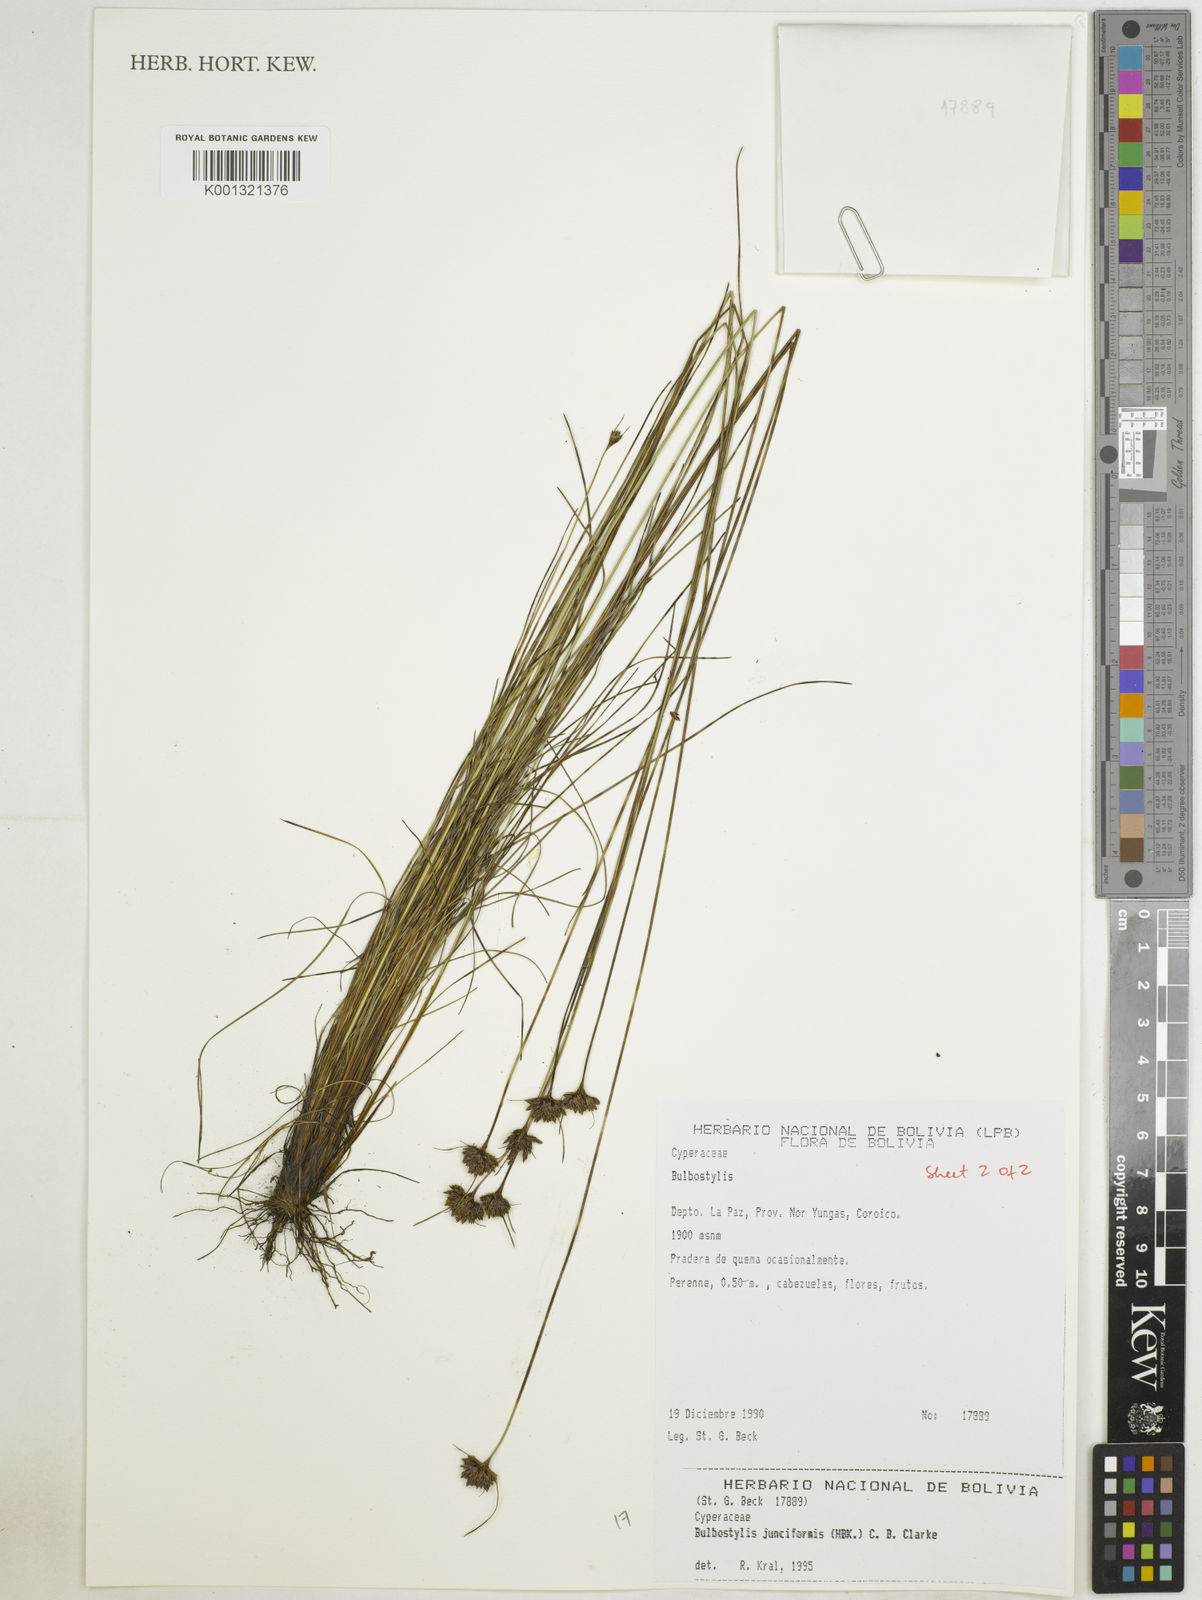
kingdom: Plantae
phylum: Tracheophyta
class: Liliopsida
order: Poales
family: Cyperaceae
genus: Bulbostylis
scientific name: Bulbostylis junciformis
